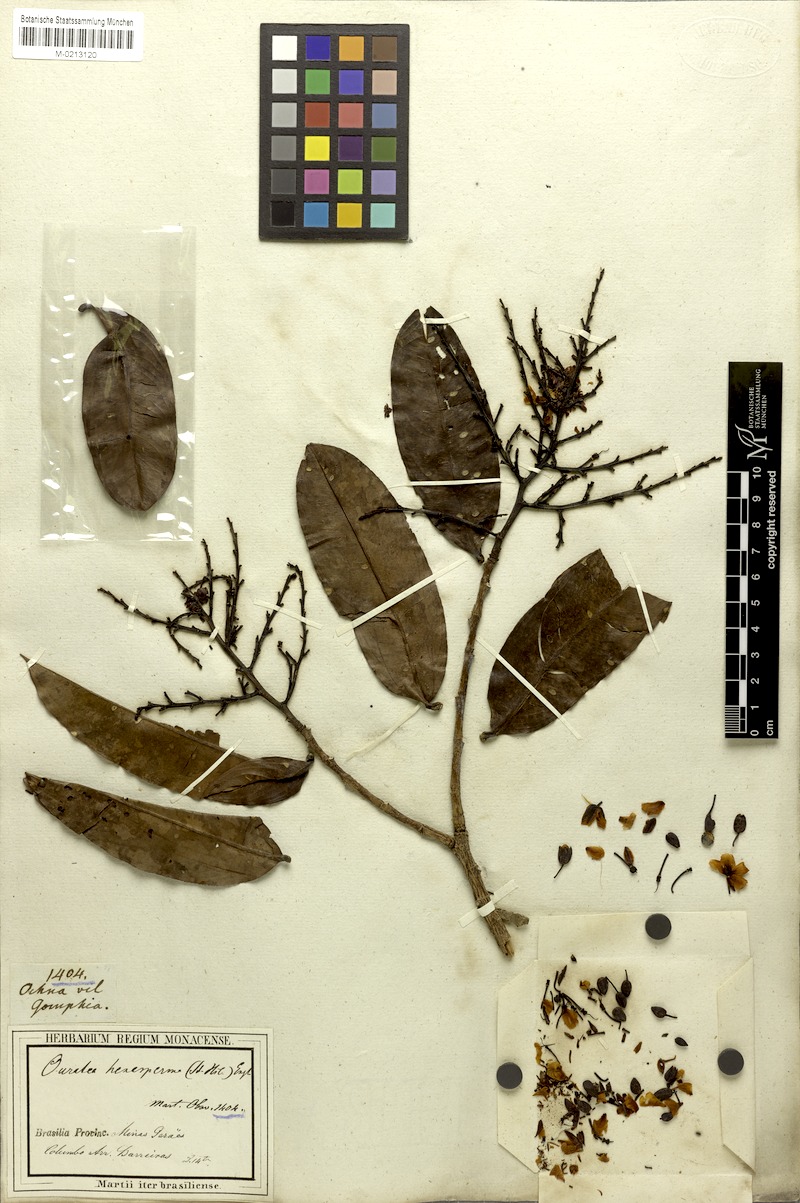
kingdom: Plantae
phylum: Tracheophyta
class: Magnoliopsida
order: Malpighiales
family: Ochnaceae
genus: Ouratea
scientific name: Ouratea hexasperma
